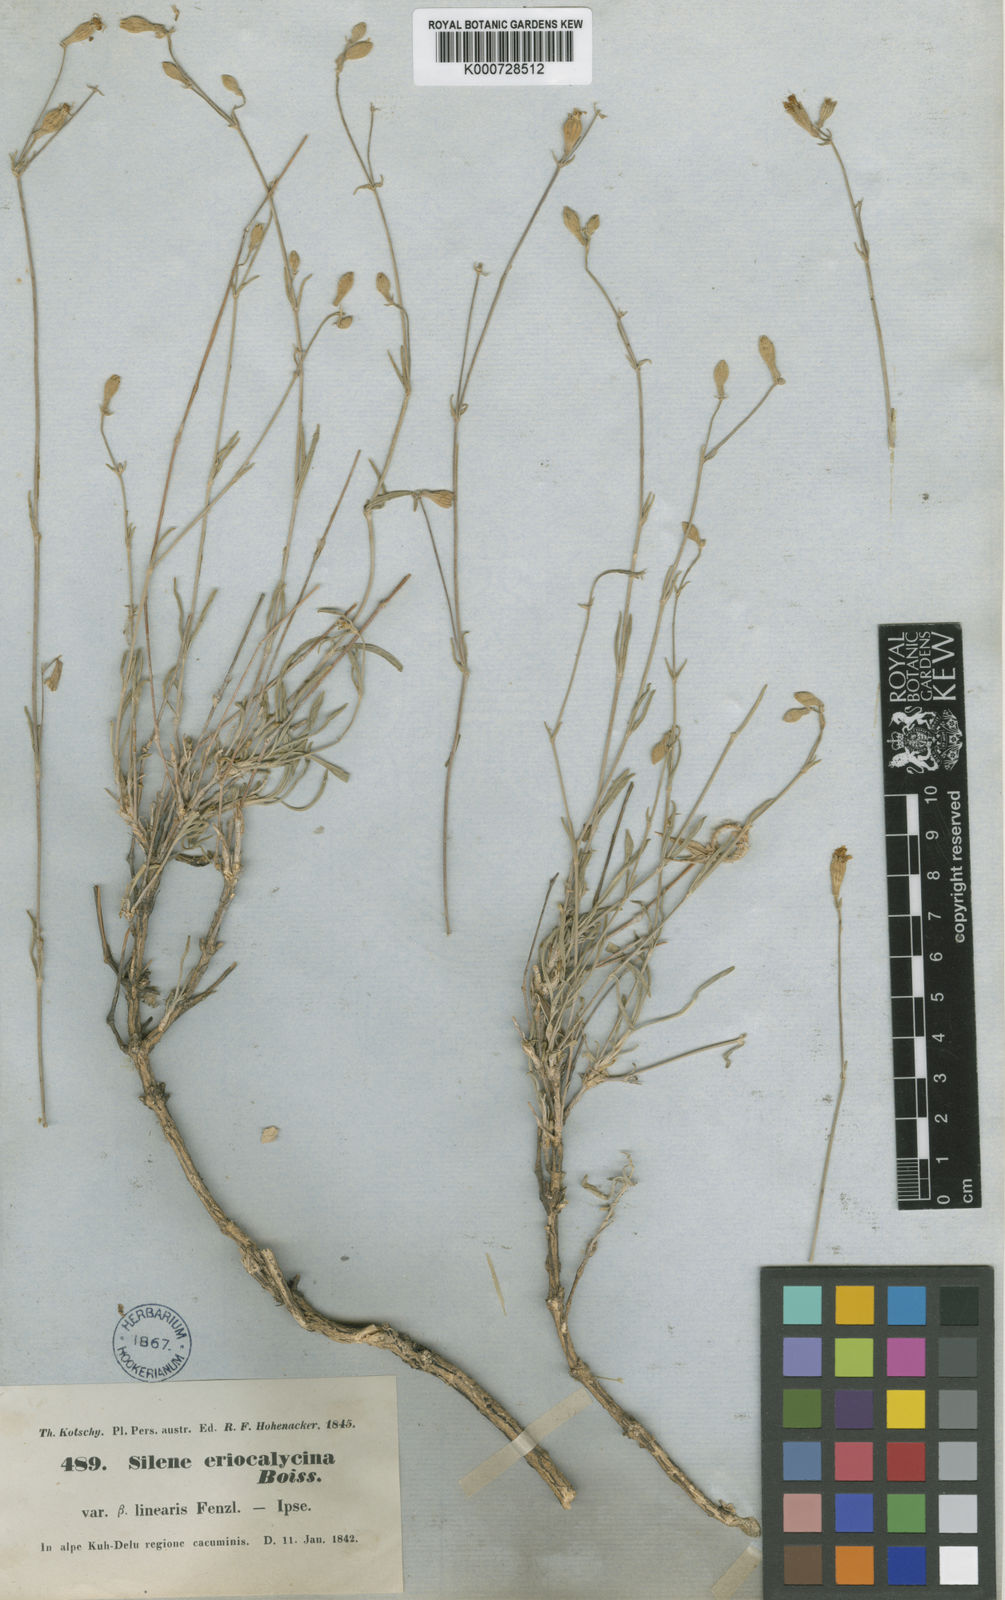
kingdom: Plantae
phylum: Tracheophyta
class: Magnoliopsida
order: Caryophyllales
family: Caryophyllaceae
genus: Silene
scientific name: Silene eriocalycina
